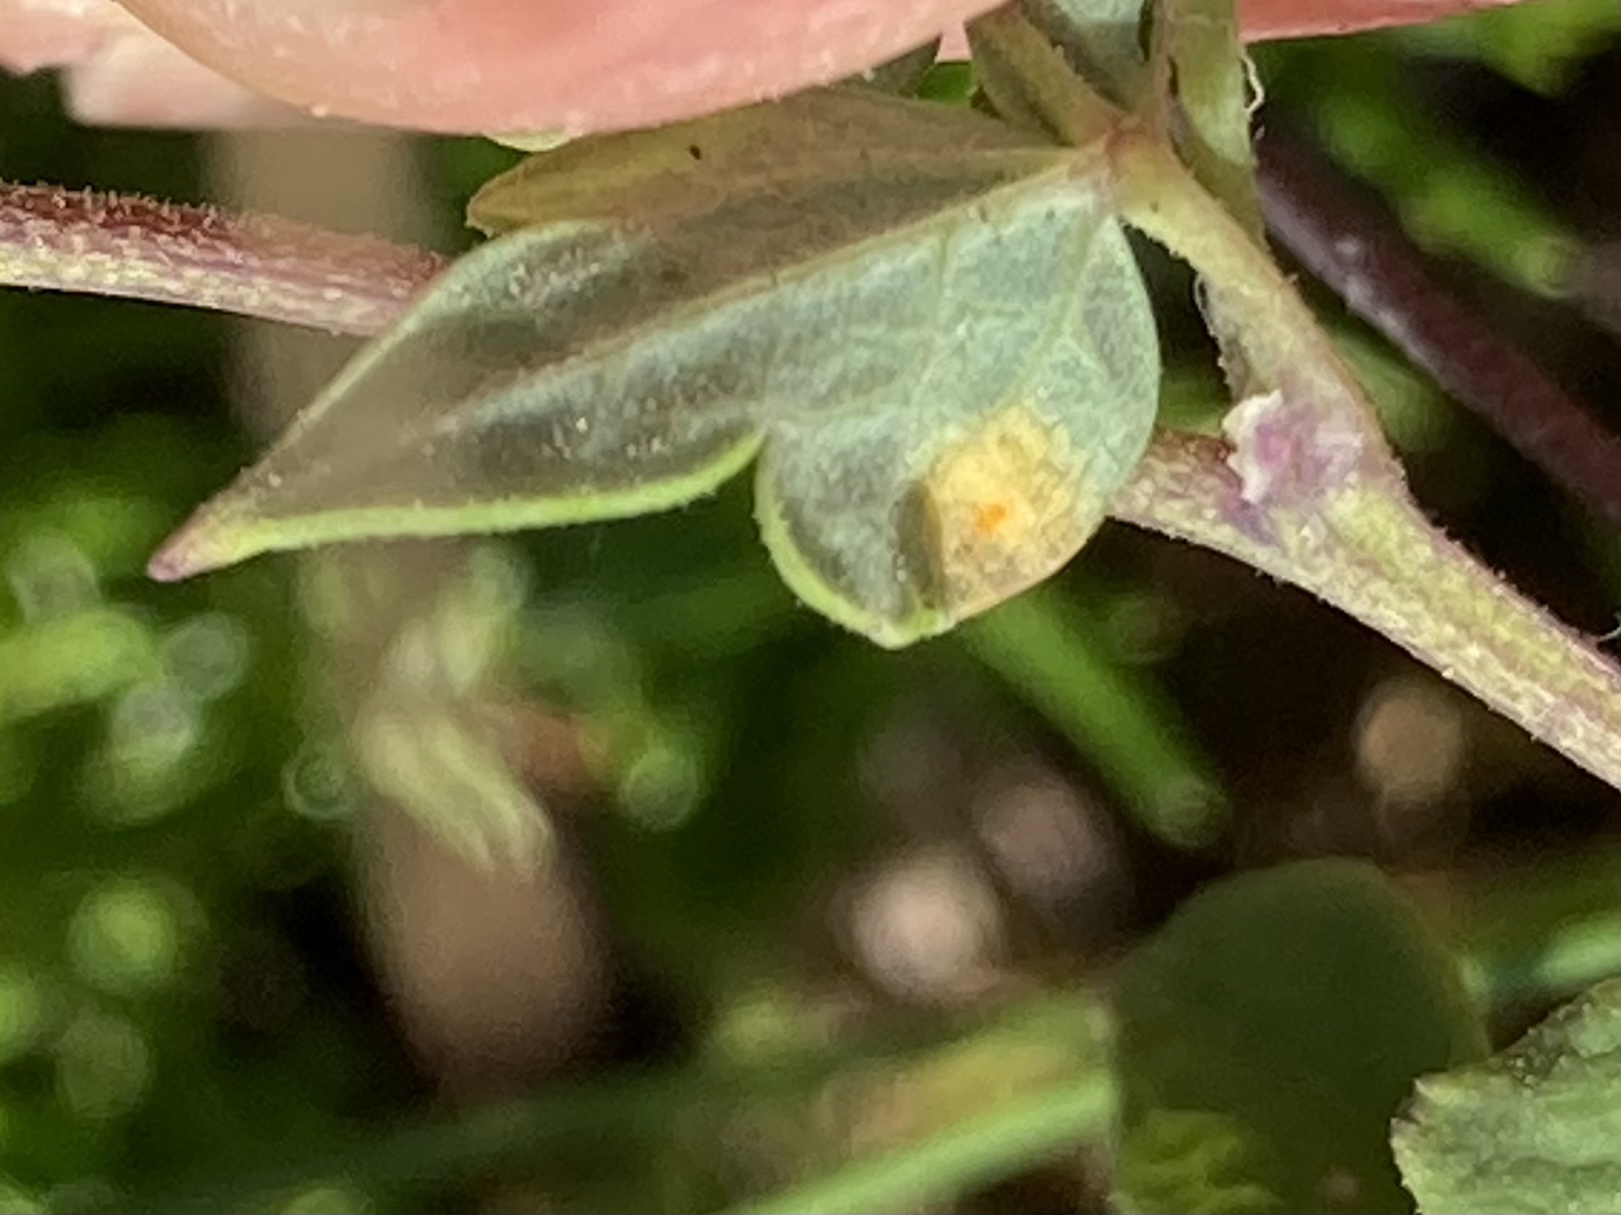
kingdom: Fungi
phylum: Basidiomycota
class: Pucciniomycetes
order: Pucciniales
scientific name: Pucciniales
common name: rustsvampeordenen
